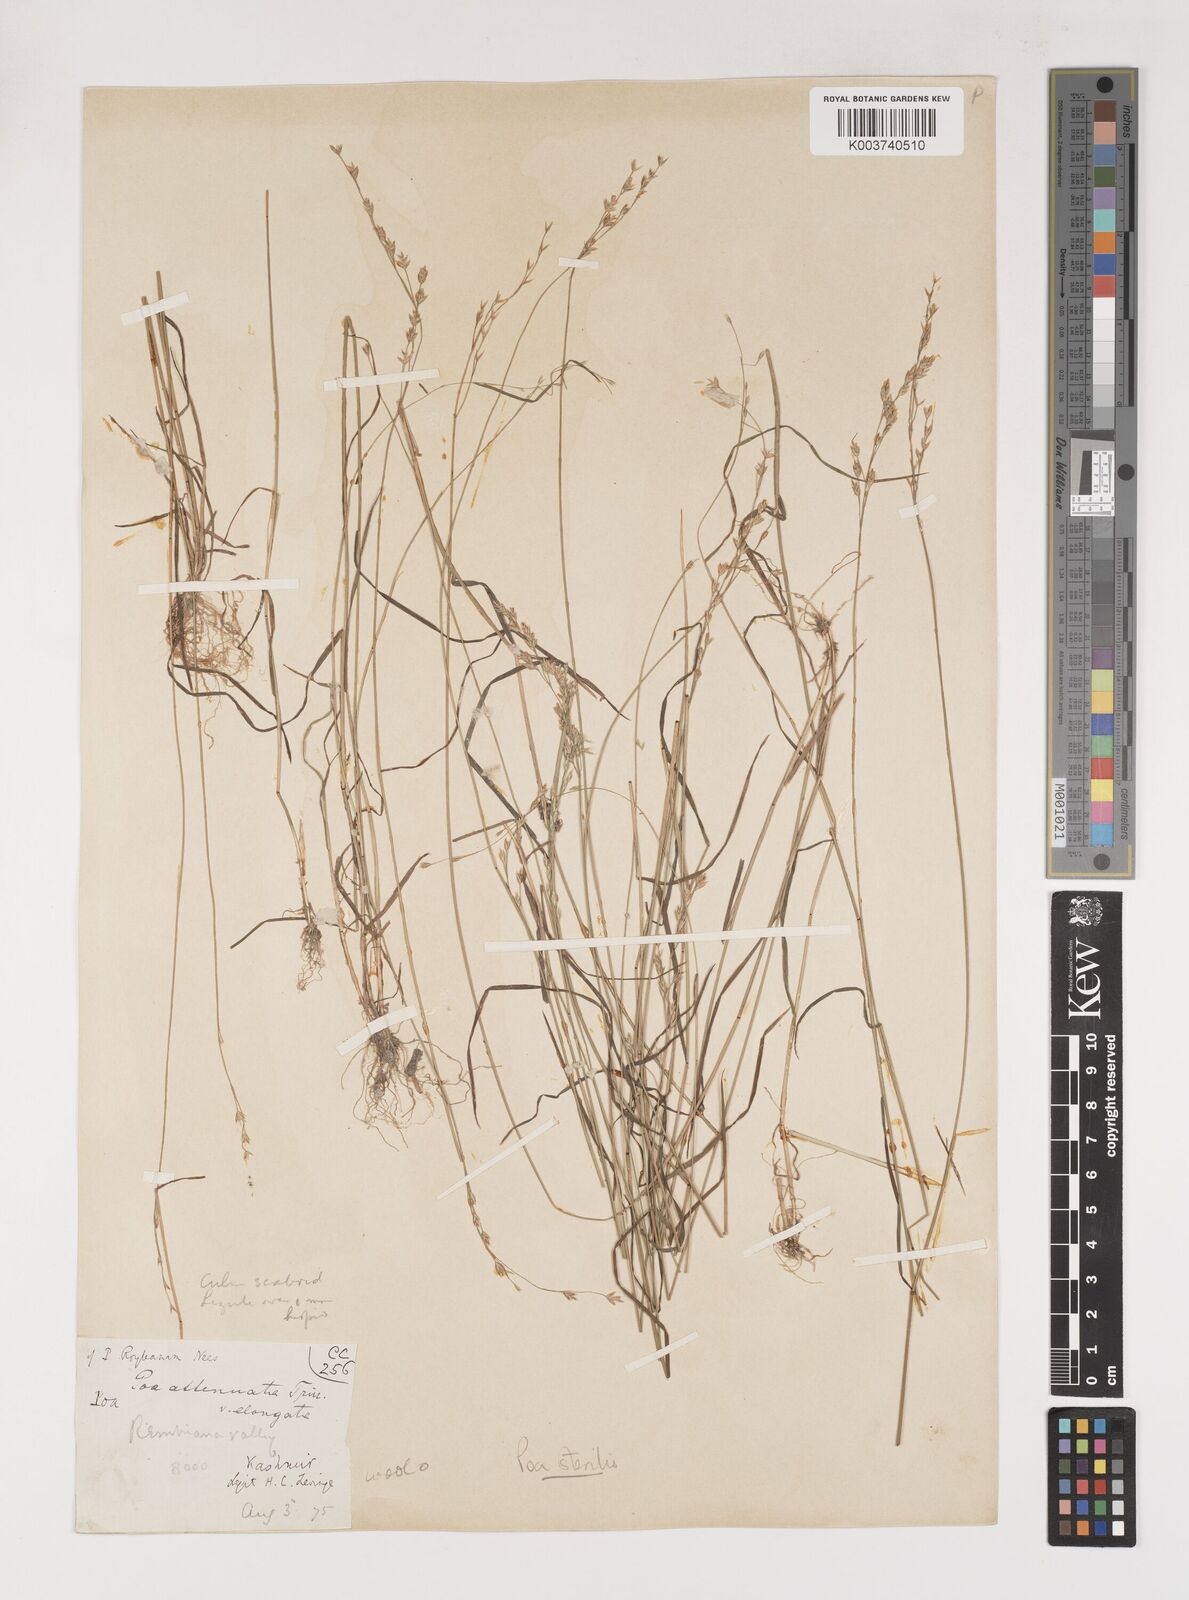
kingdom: Plantae
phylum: Tracheophyta
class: Liliopsida
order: Poales
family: Poaceae
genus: Poa
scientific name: Poa sterilis
